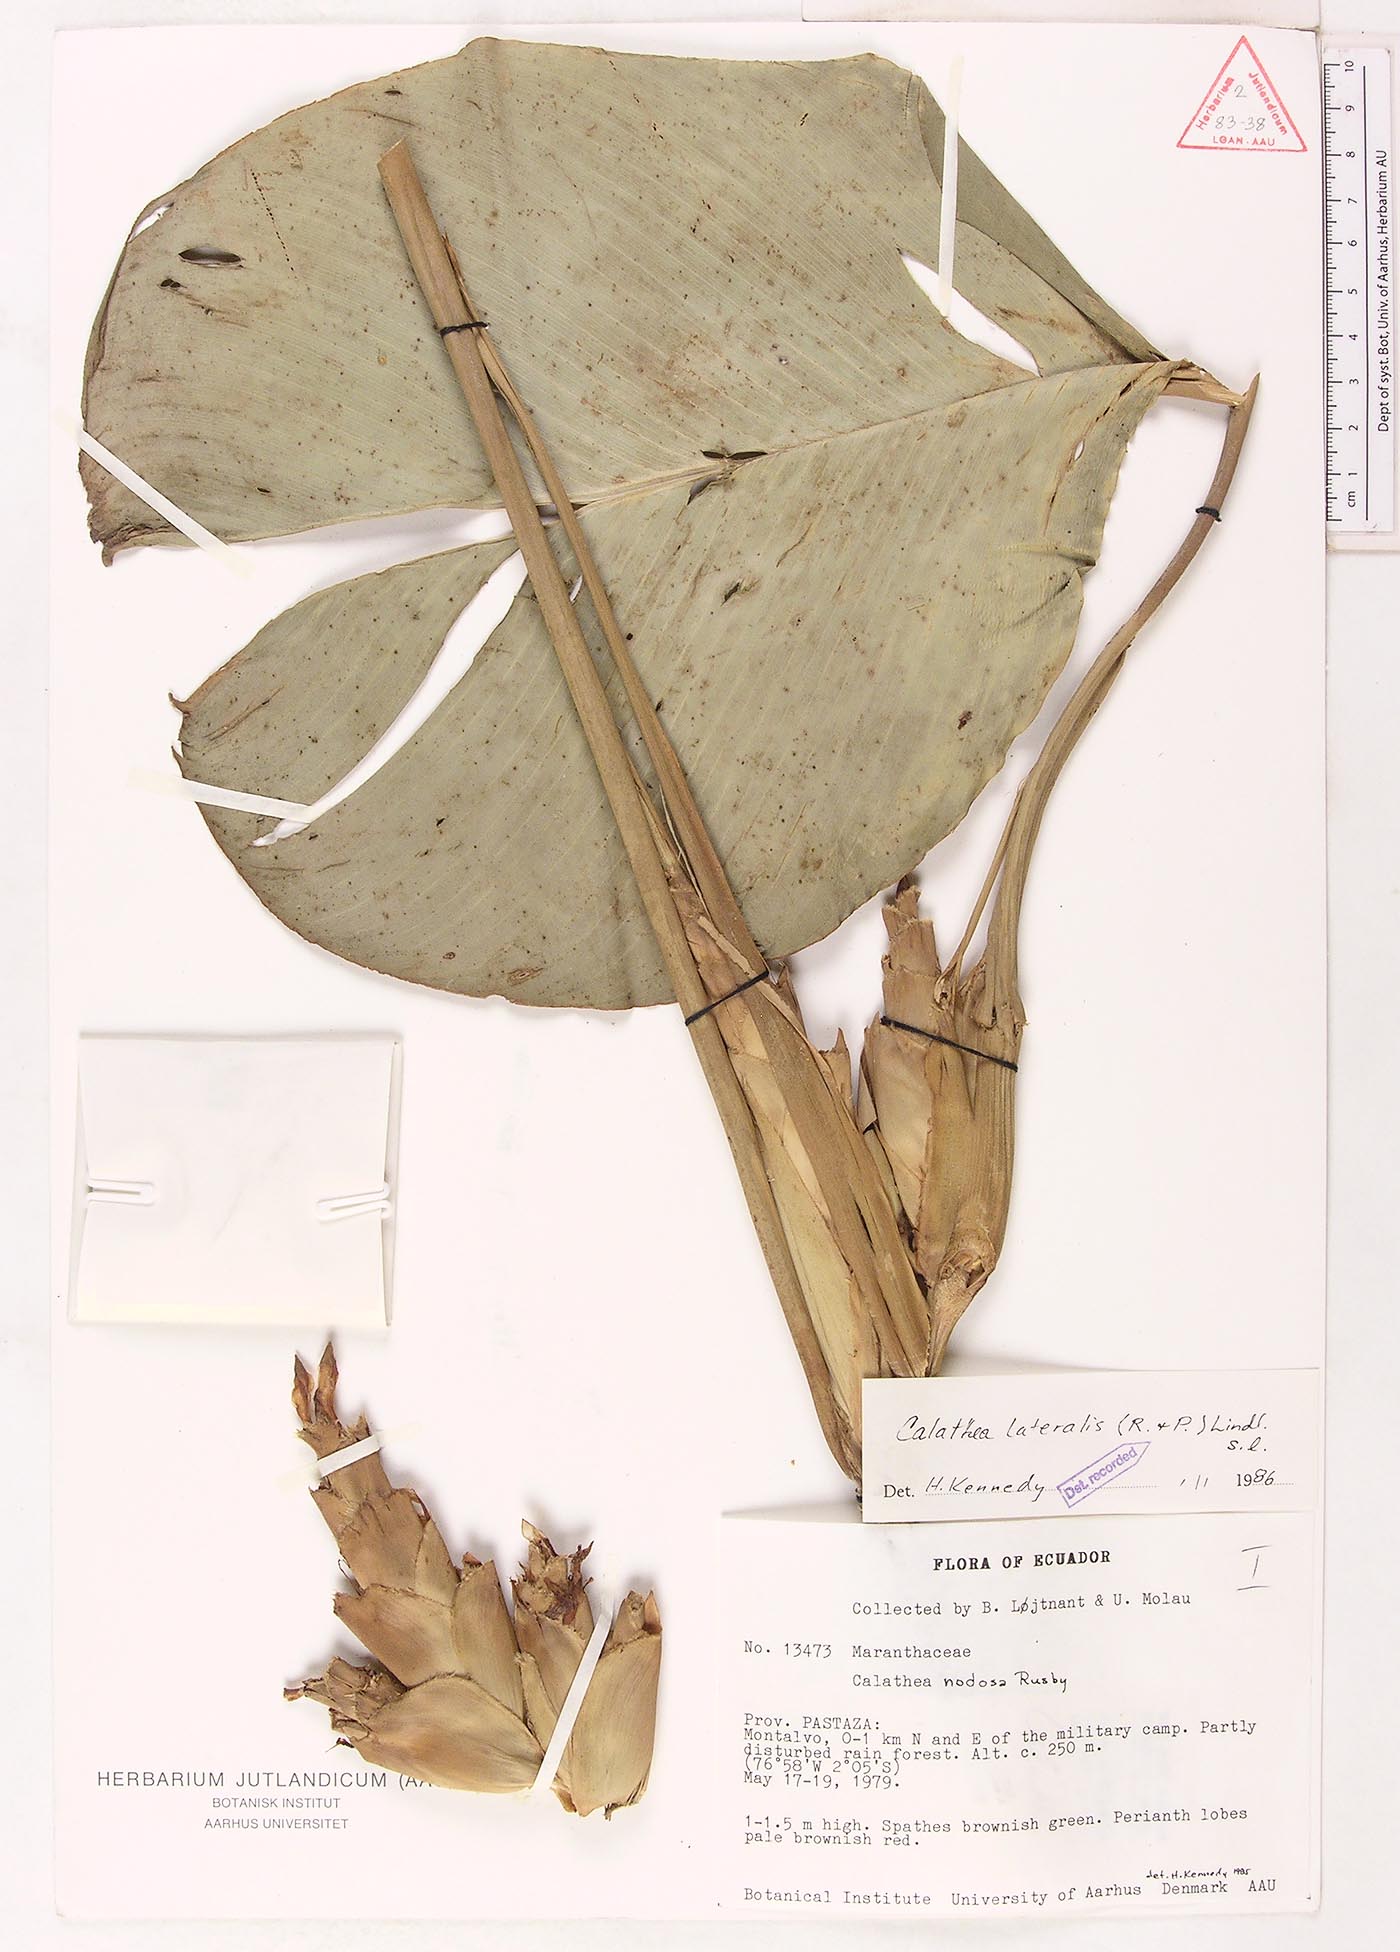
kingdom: Plantae
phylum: Tracheophyta
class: Liliopsida
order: Zingiberales
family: Marantaceae
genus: Calathea
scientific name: Calathea lateralis
